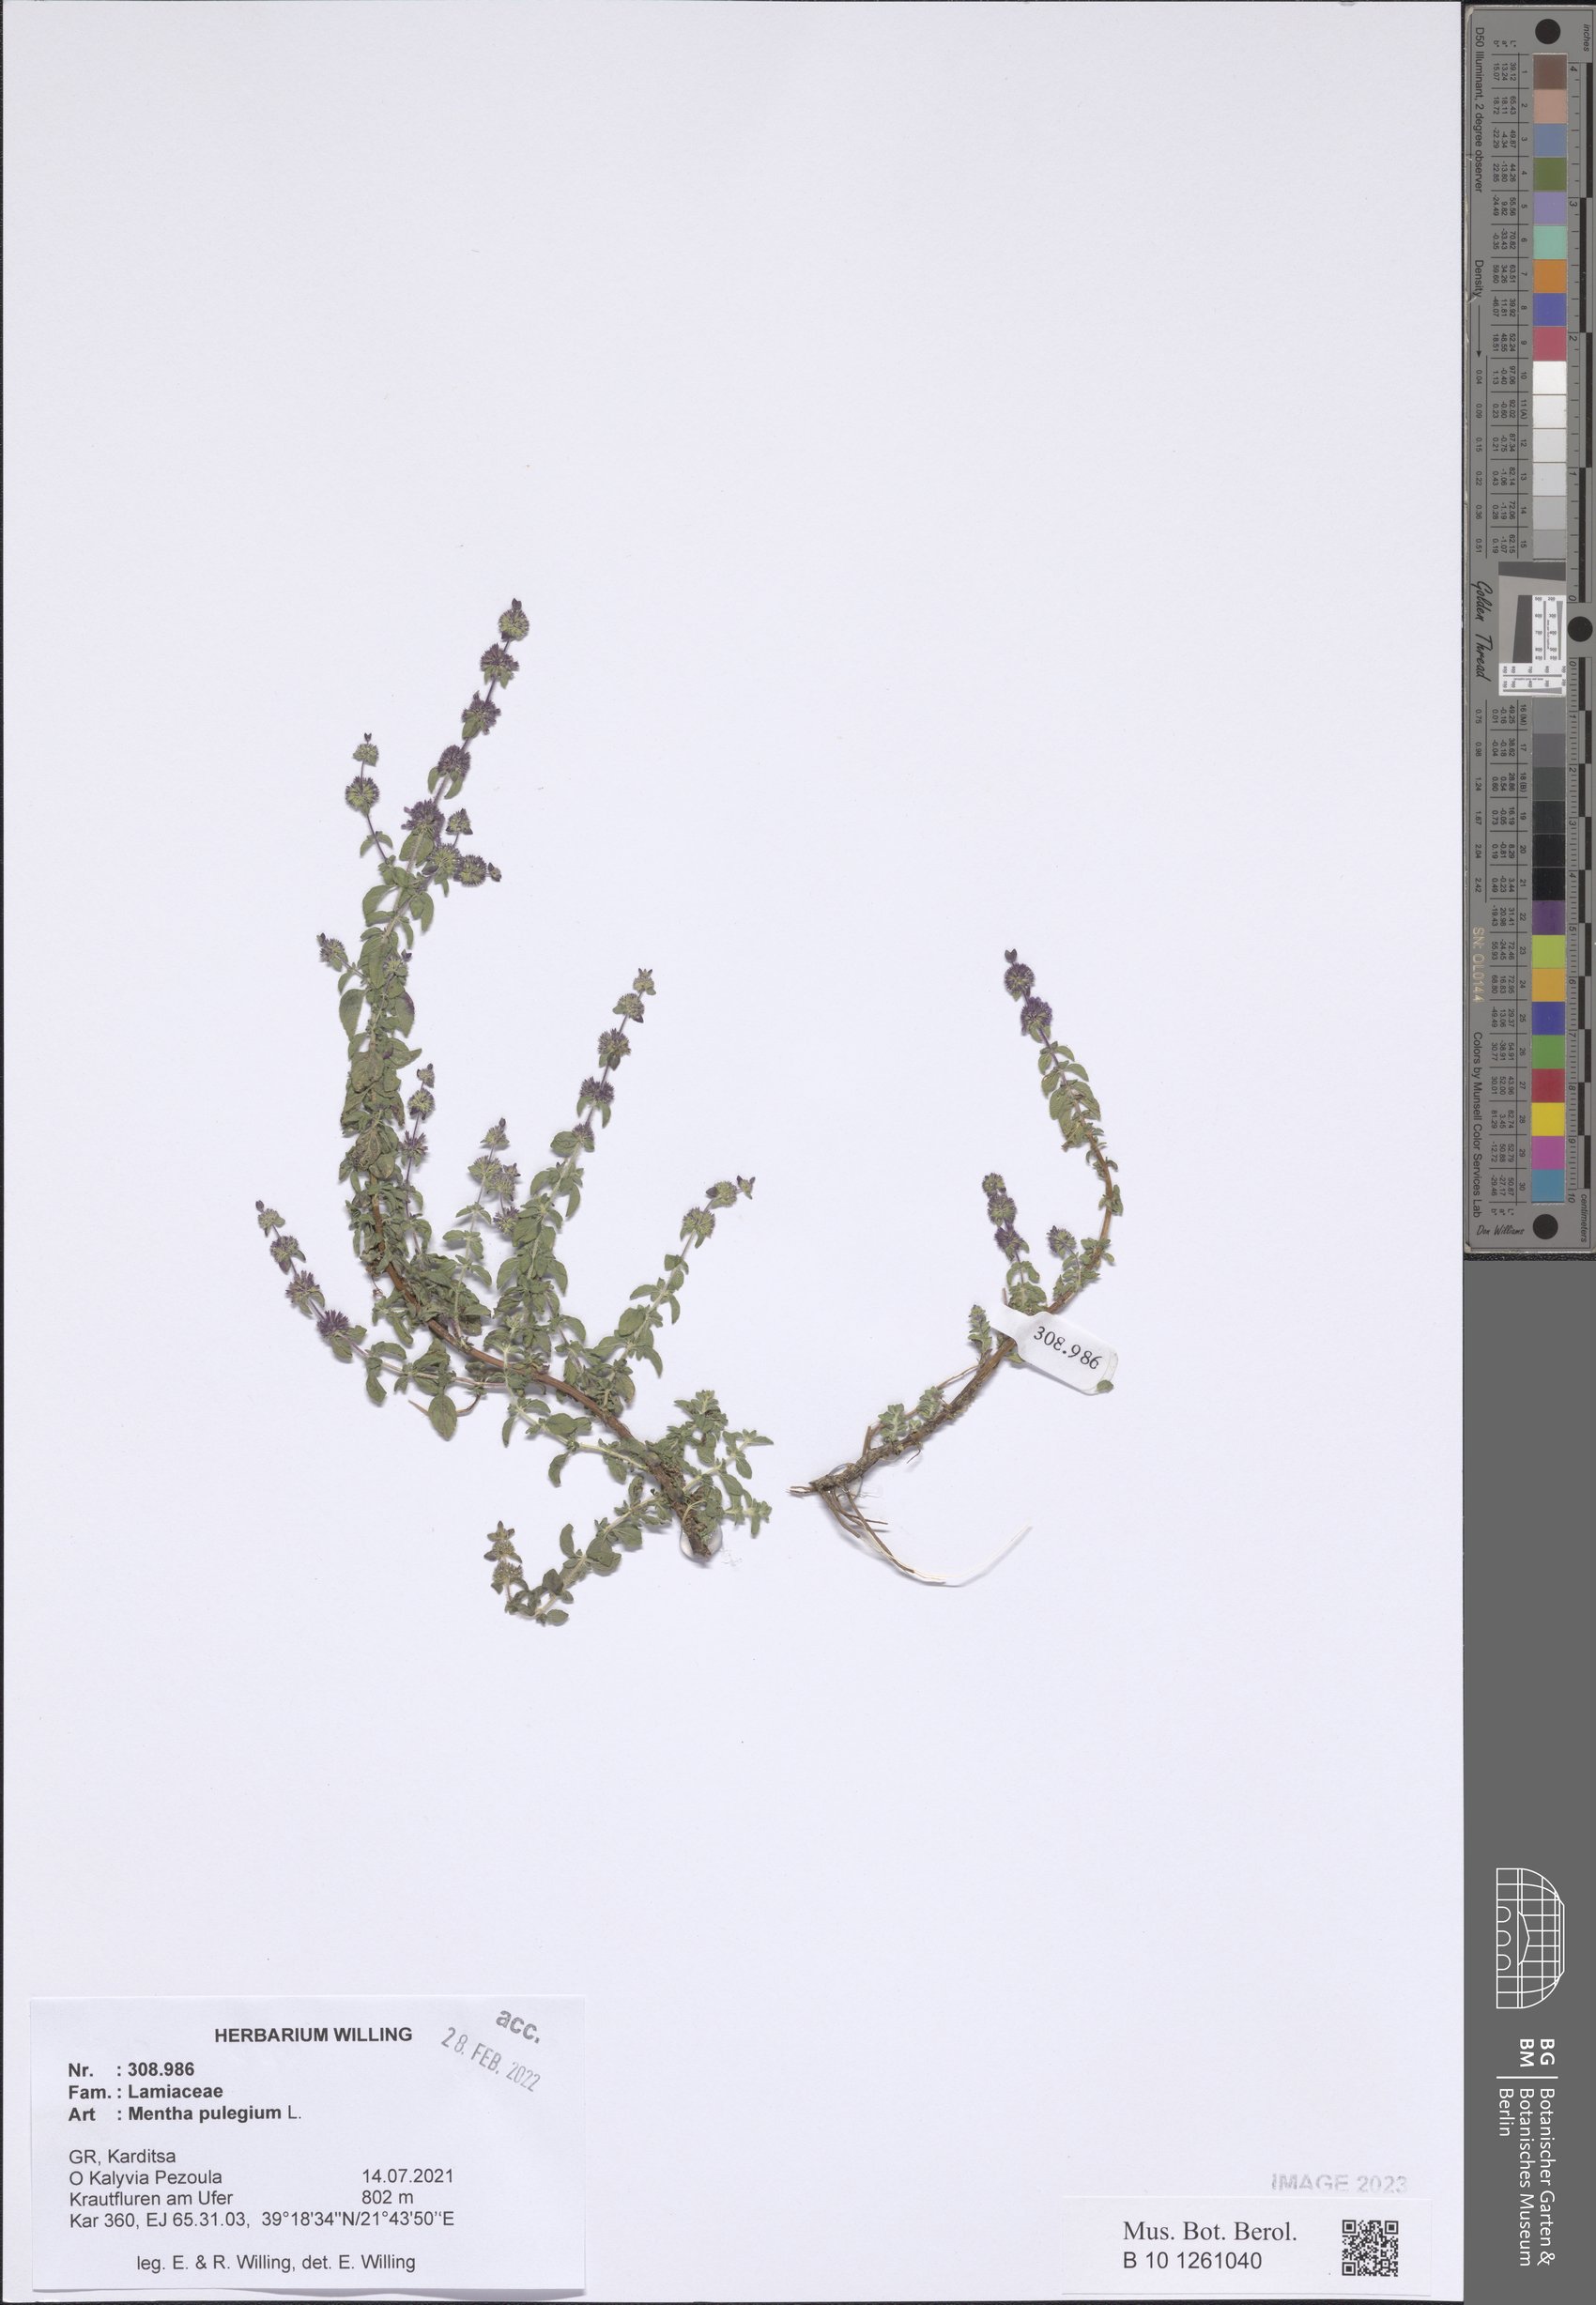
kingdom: Plantae
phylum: Tracheophyta
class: Magnoliopsida
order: Lamiales
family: Lamiaceae
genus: Mentha
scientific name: Mentha pulegium
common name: Pennyroyal
